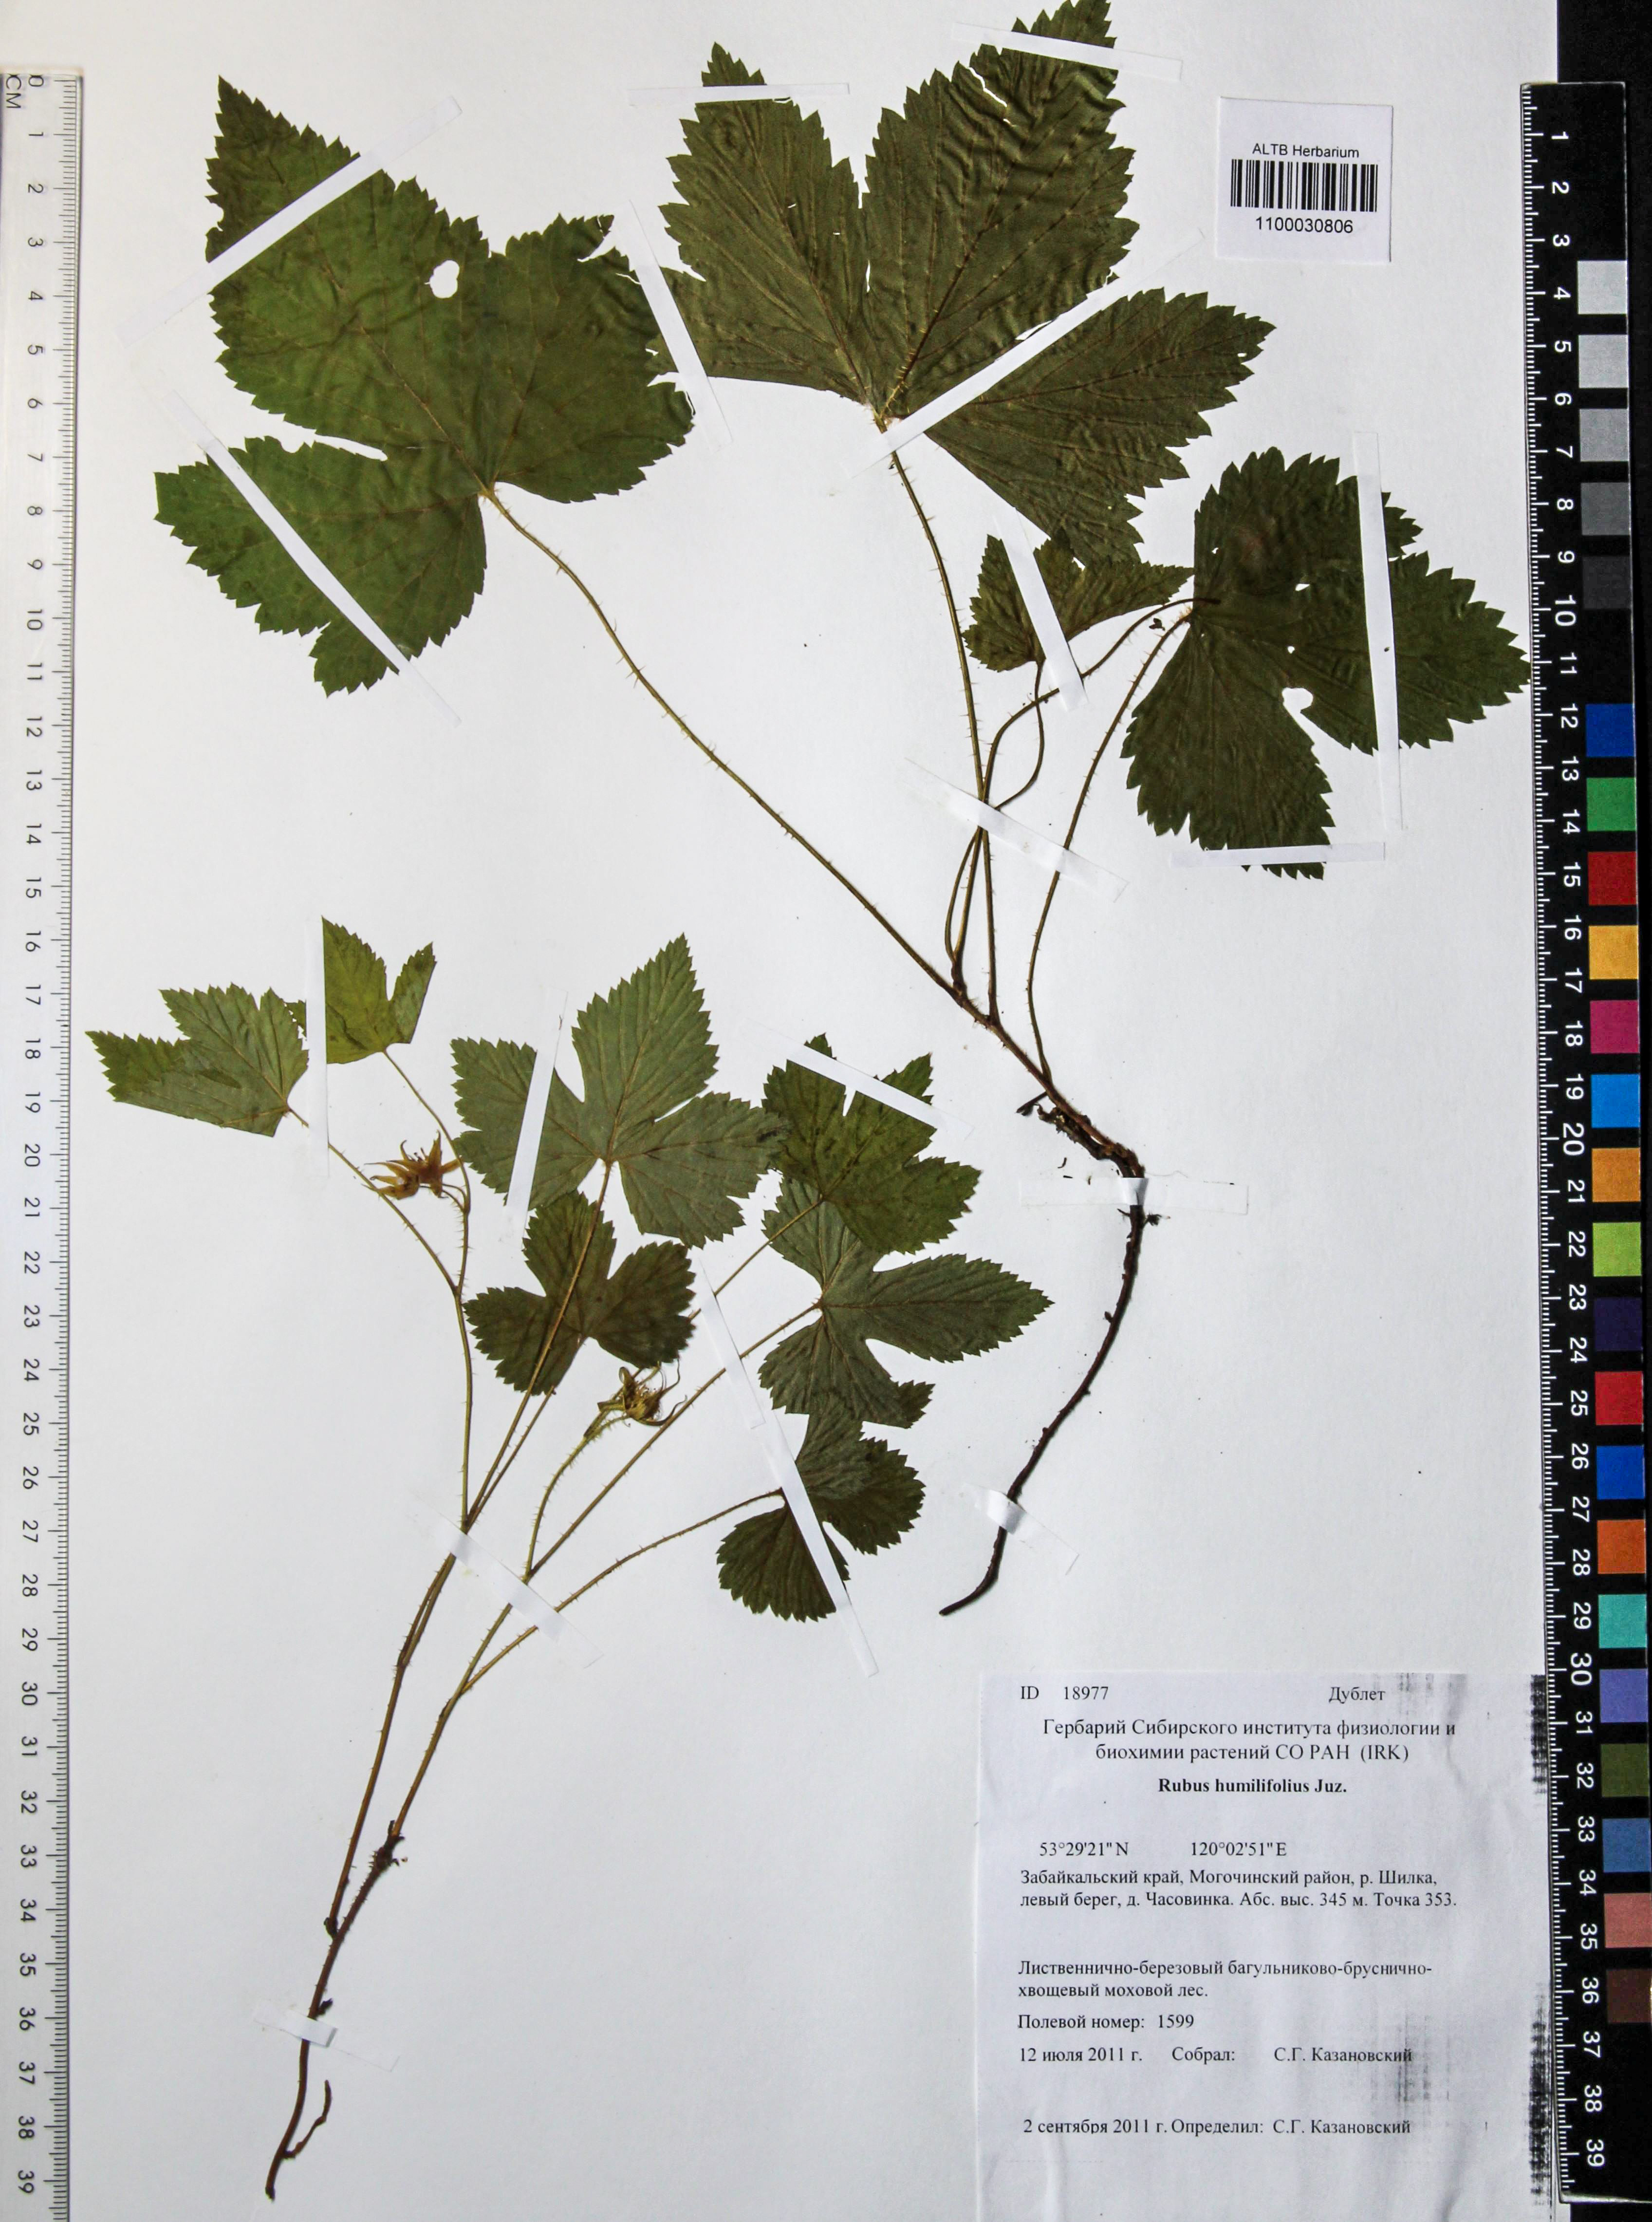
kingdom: Plantae
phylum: Tracheophyta
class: Magnoliopsida
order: Rosales
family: Rosaceae
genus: Rubus
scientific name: Rubus humilifolius
